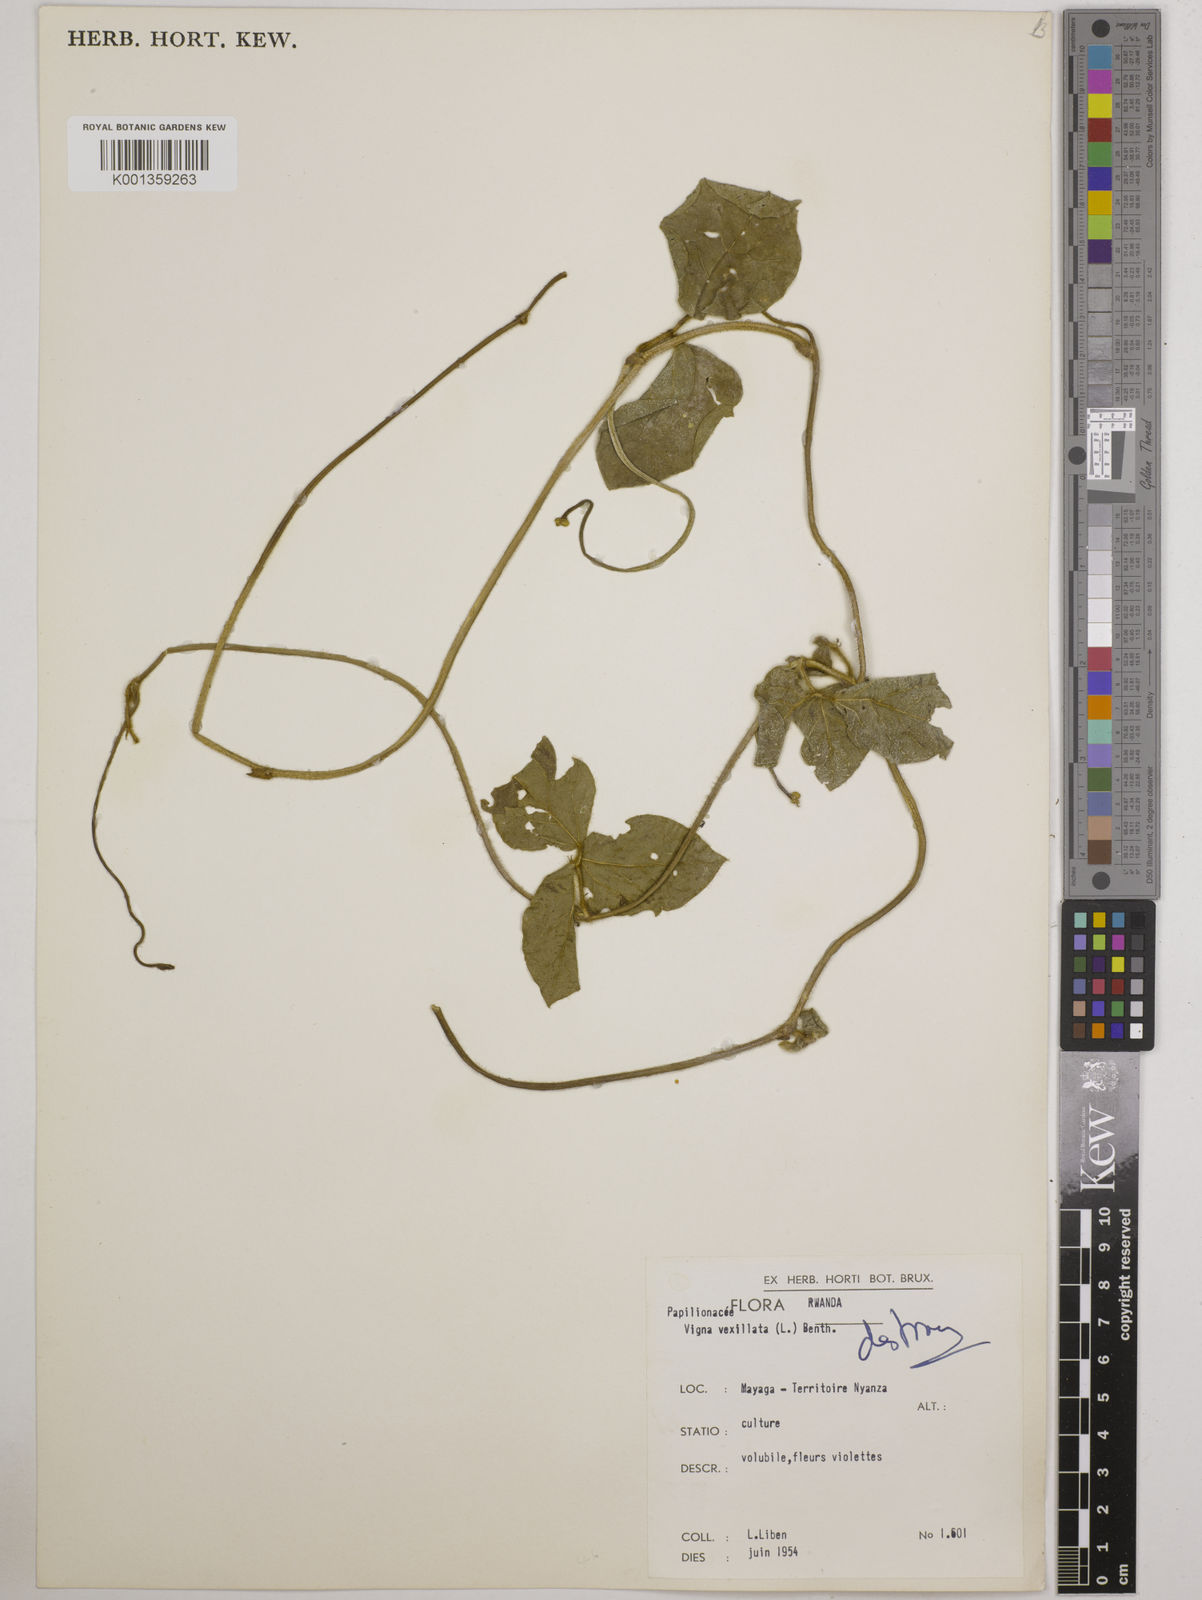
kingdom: Plantae
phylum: Tracheophyta
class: Magnoliopsida
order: Fabales
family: Fabaceae
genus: Vigna
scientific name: Vigna vexillata
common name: Zombi pea
